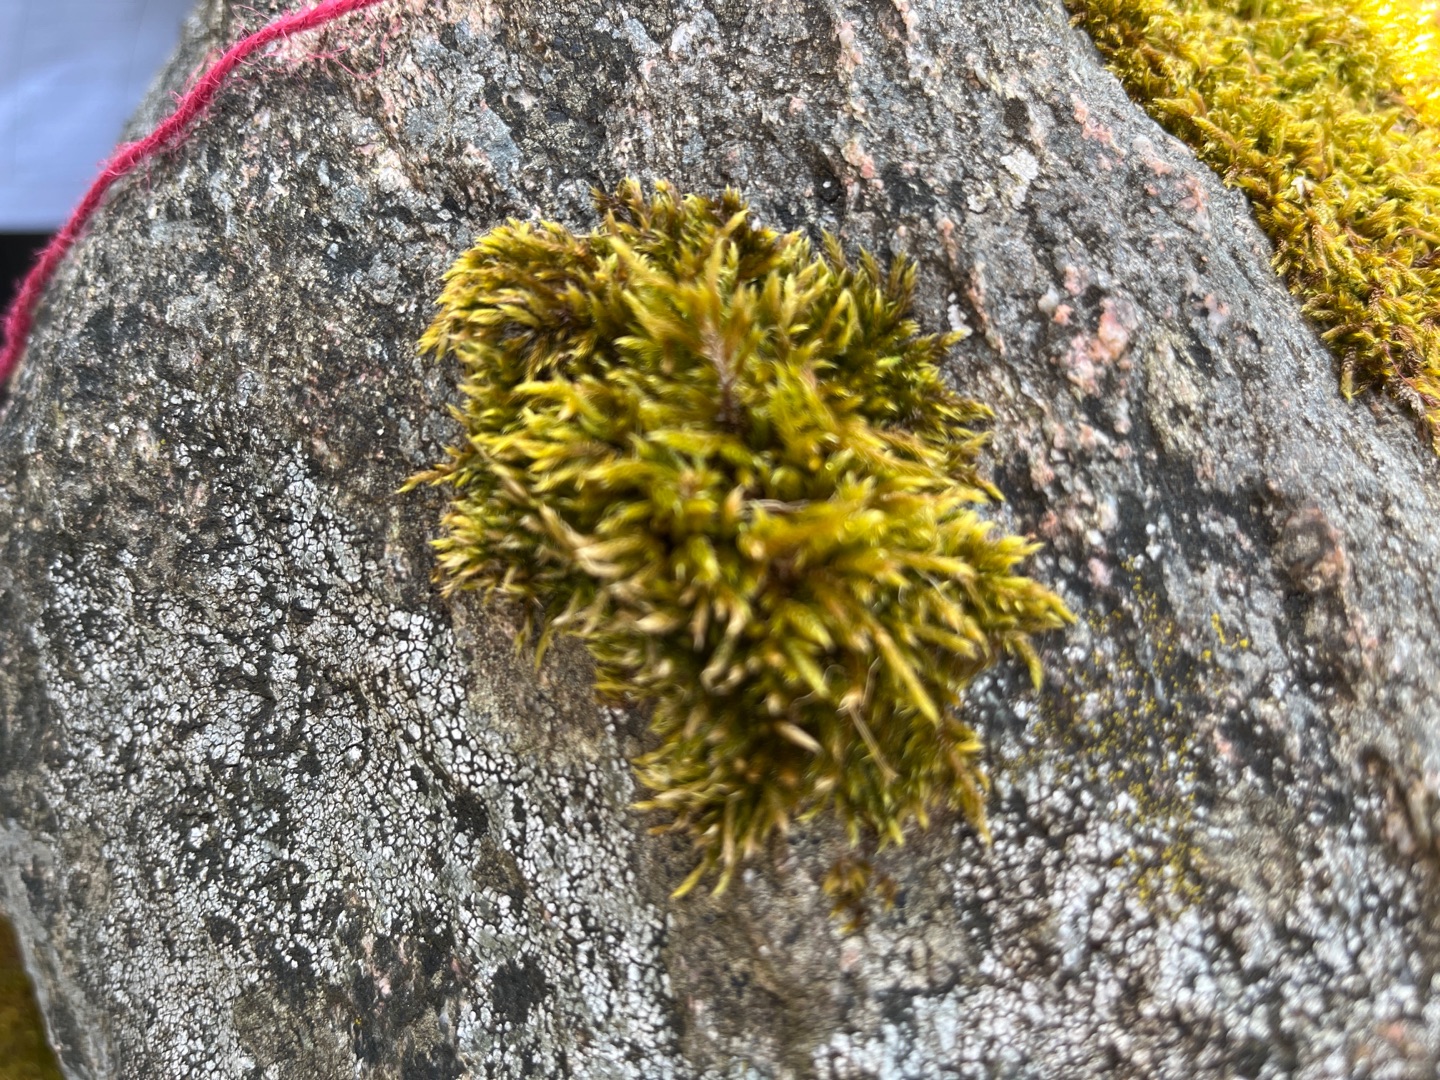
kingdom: Plantae
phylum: Bryophyta
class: Bryopsida
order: Hypnales
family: Hypnaceae
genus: Hypnum
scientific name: Hypnum cupressiforme
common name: Almindelig cypresmos
